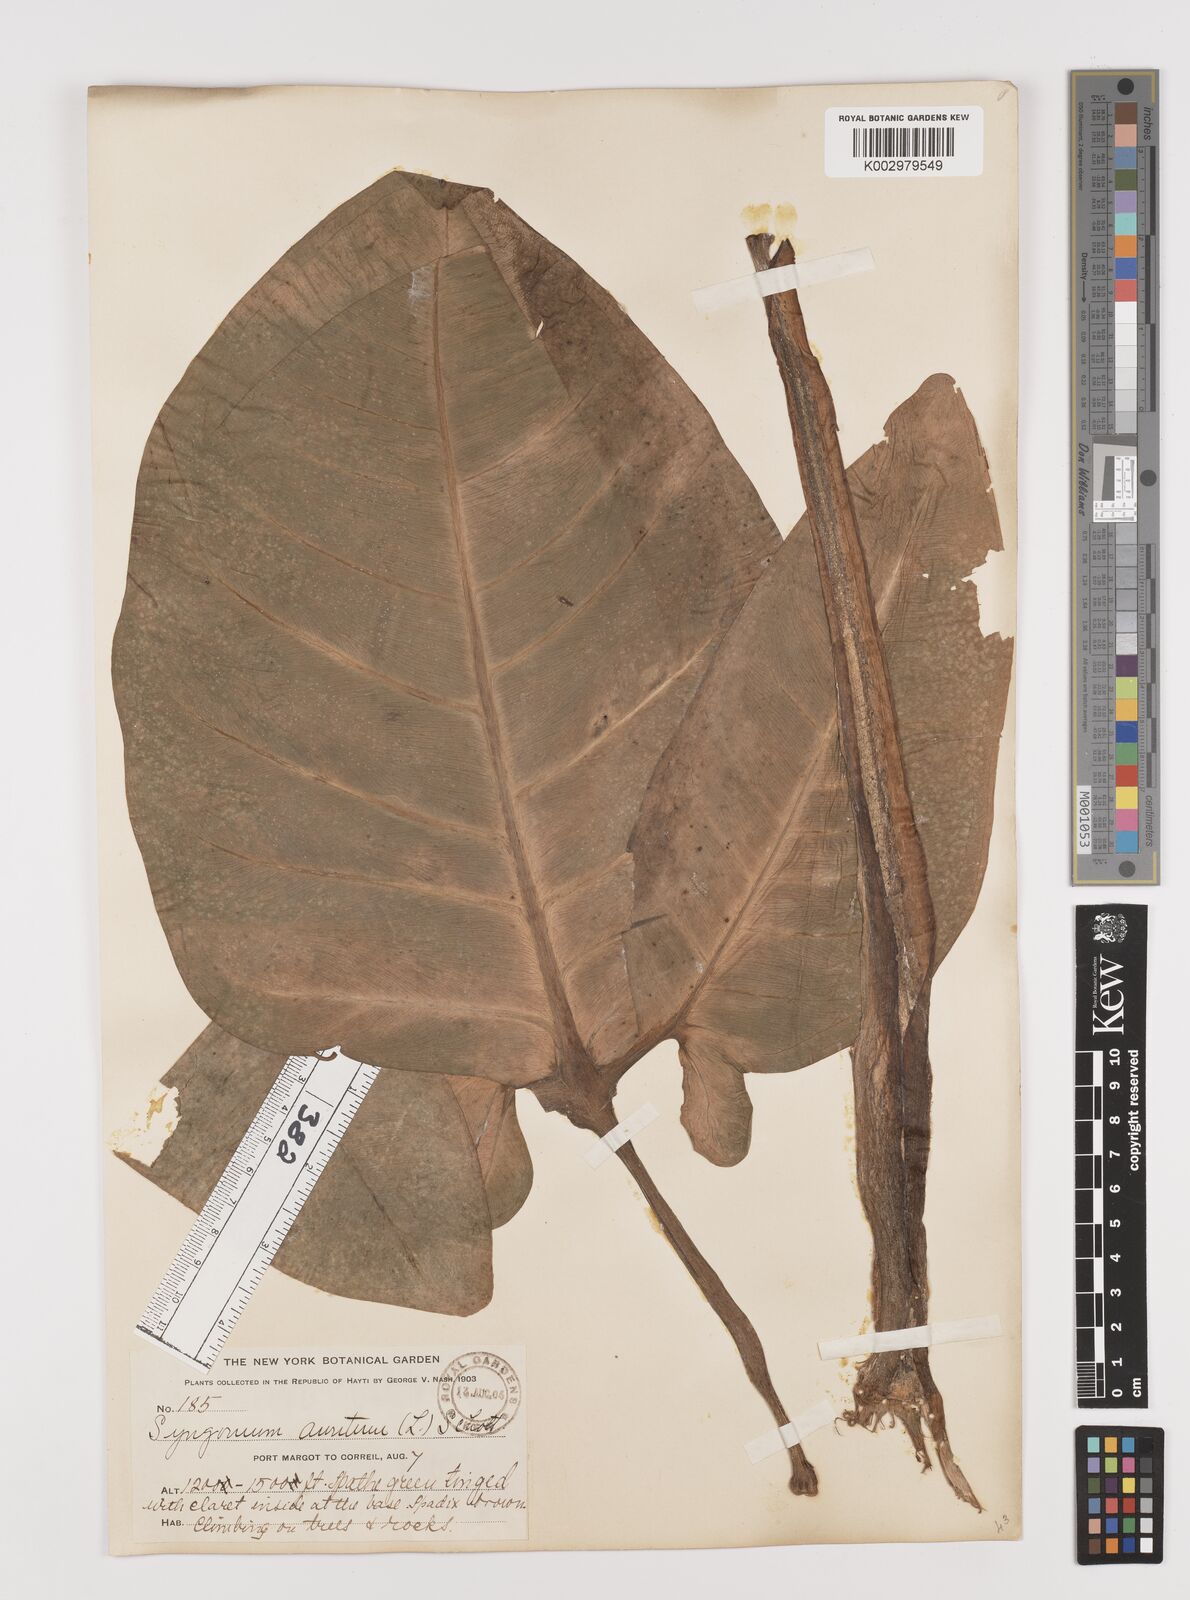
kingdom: Plantae
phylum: Tracheophyta
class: Liliopsida
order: Alismatales
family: Araceae
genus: Syngonium
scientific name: Syngonium auritum
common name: Five-fingers
